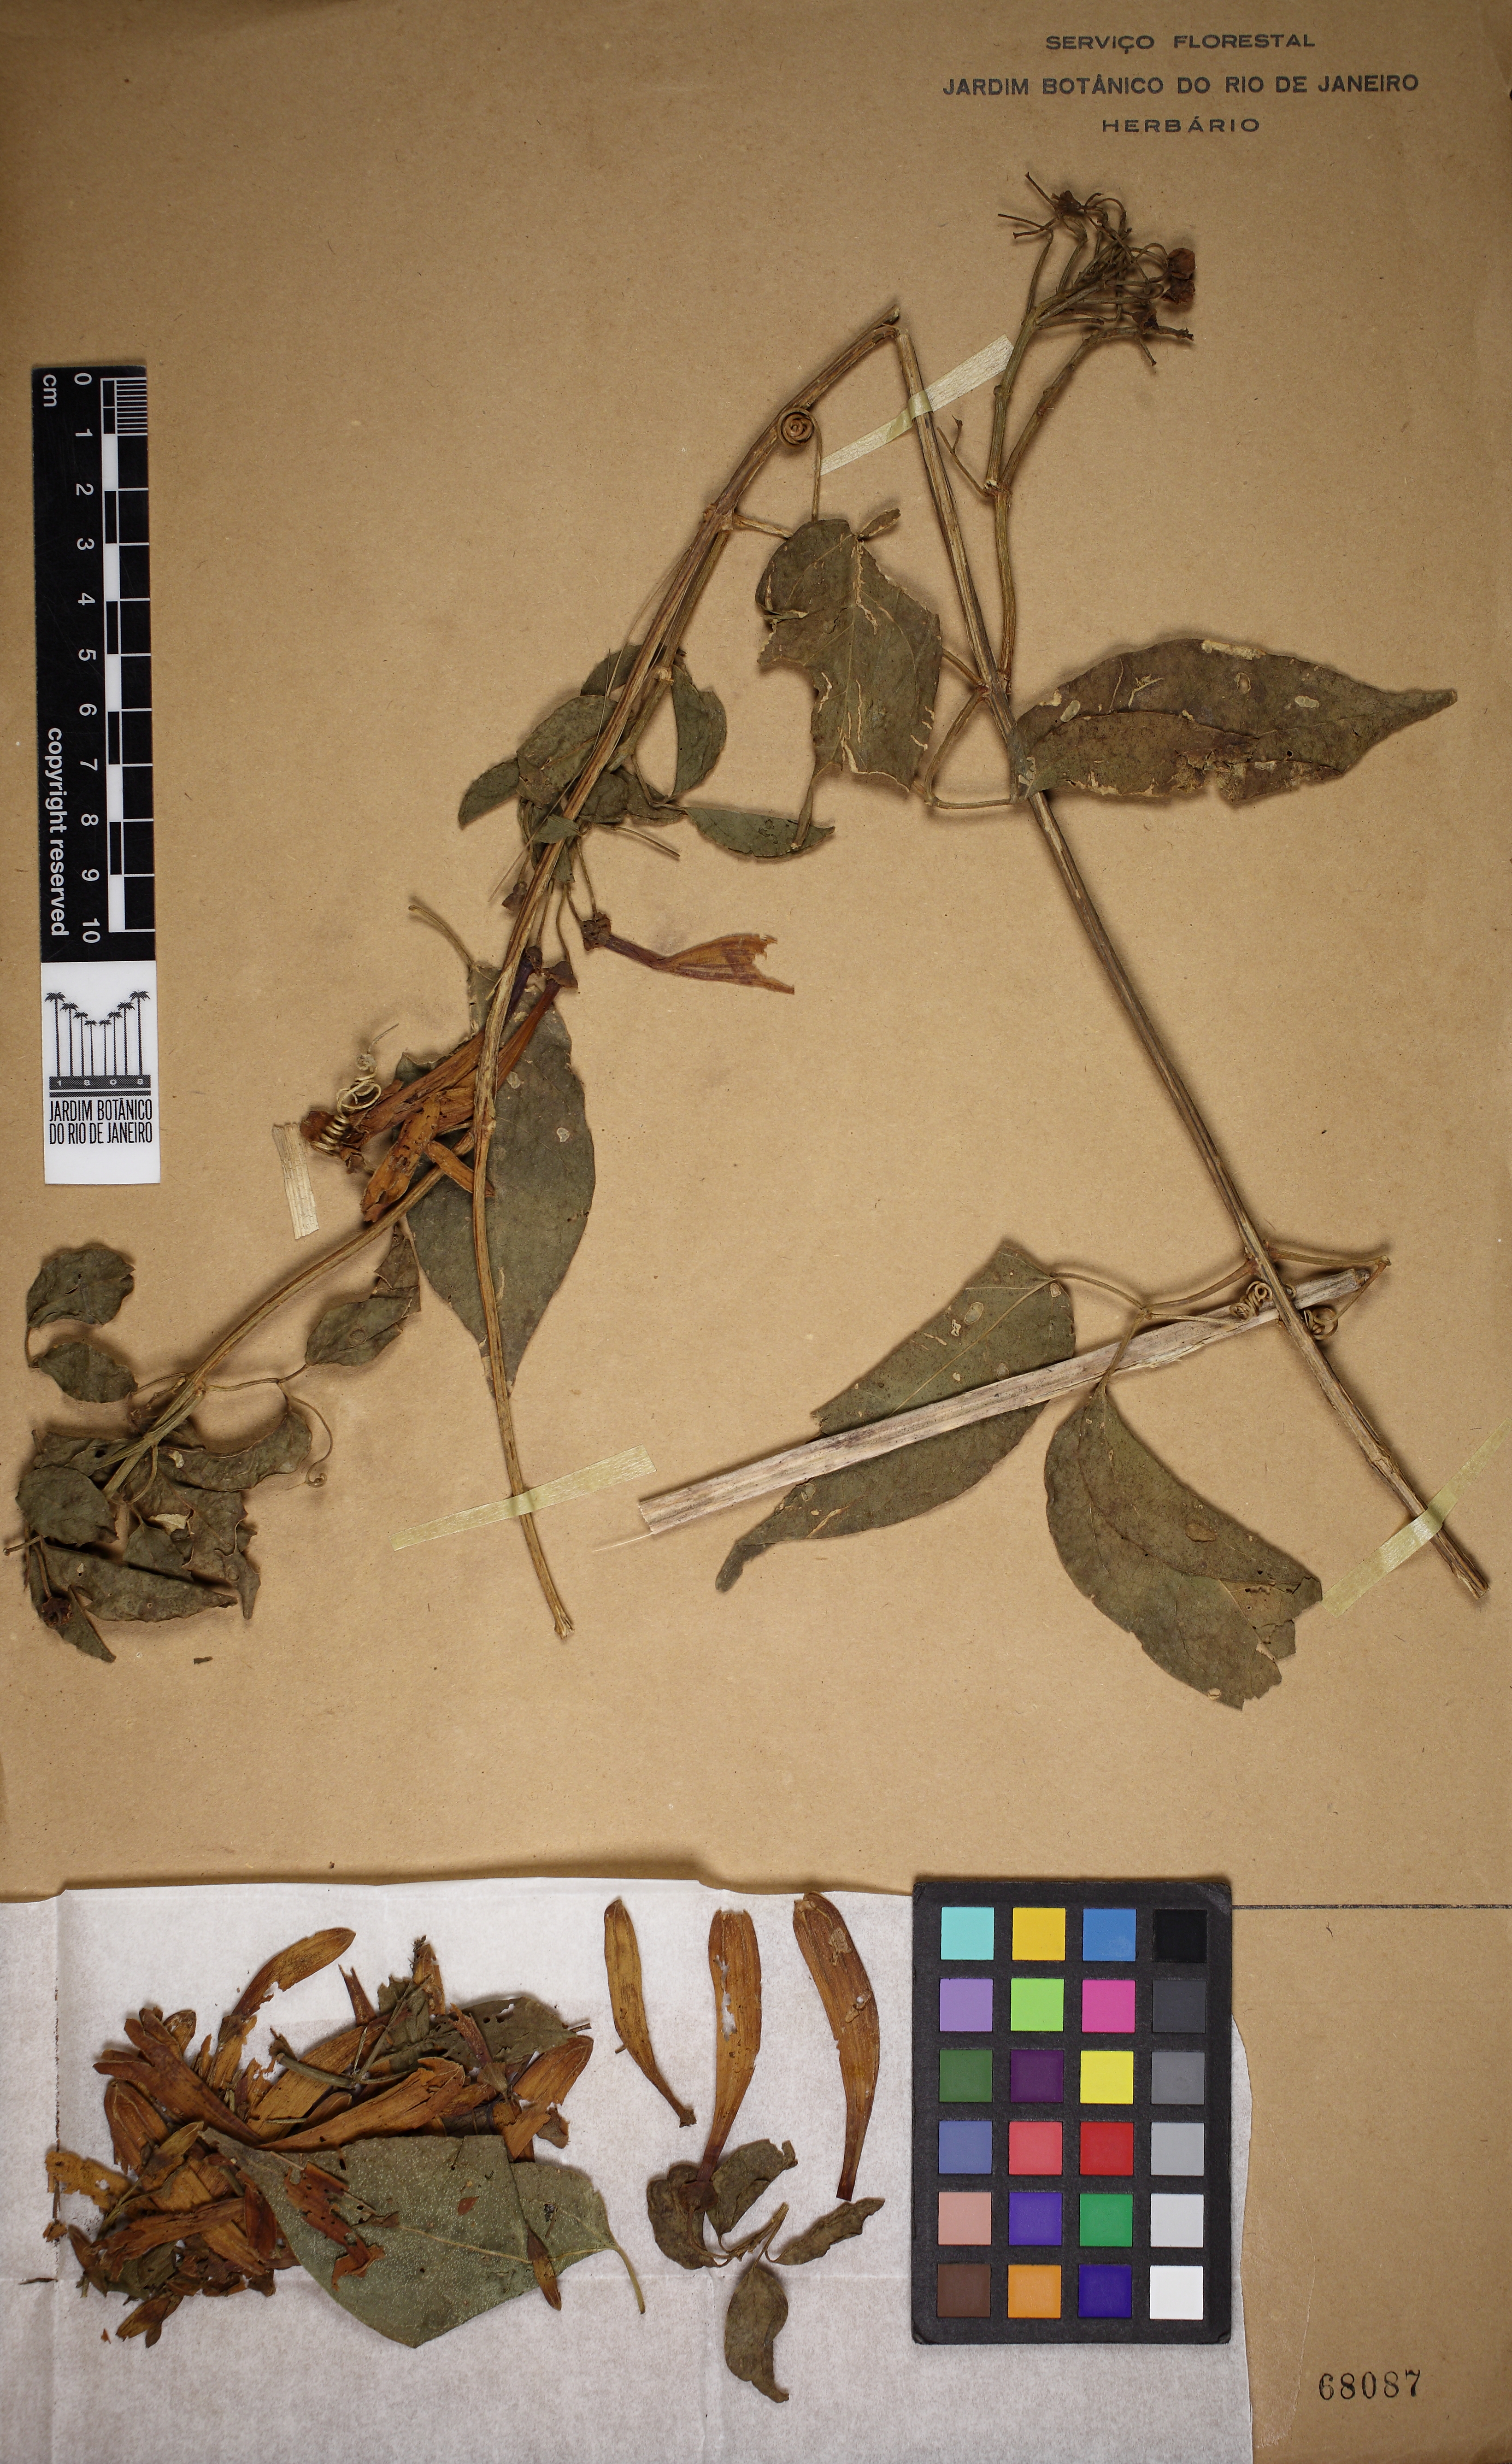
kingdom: Plantae
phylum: Tracheophyta
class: Magnoliopsida
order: Lamiales
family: Bignoniaceae
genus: Pyrostegia
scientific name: Pyrostegia venusta
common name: Flamevine
